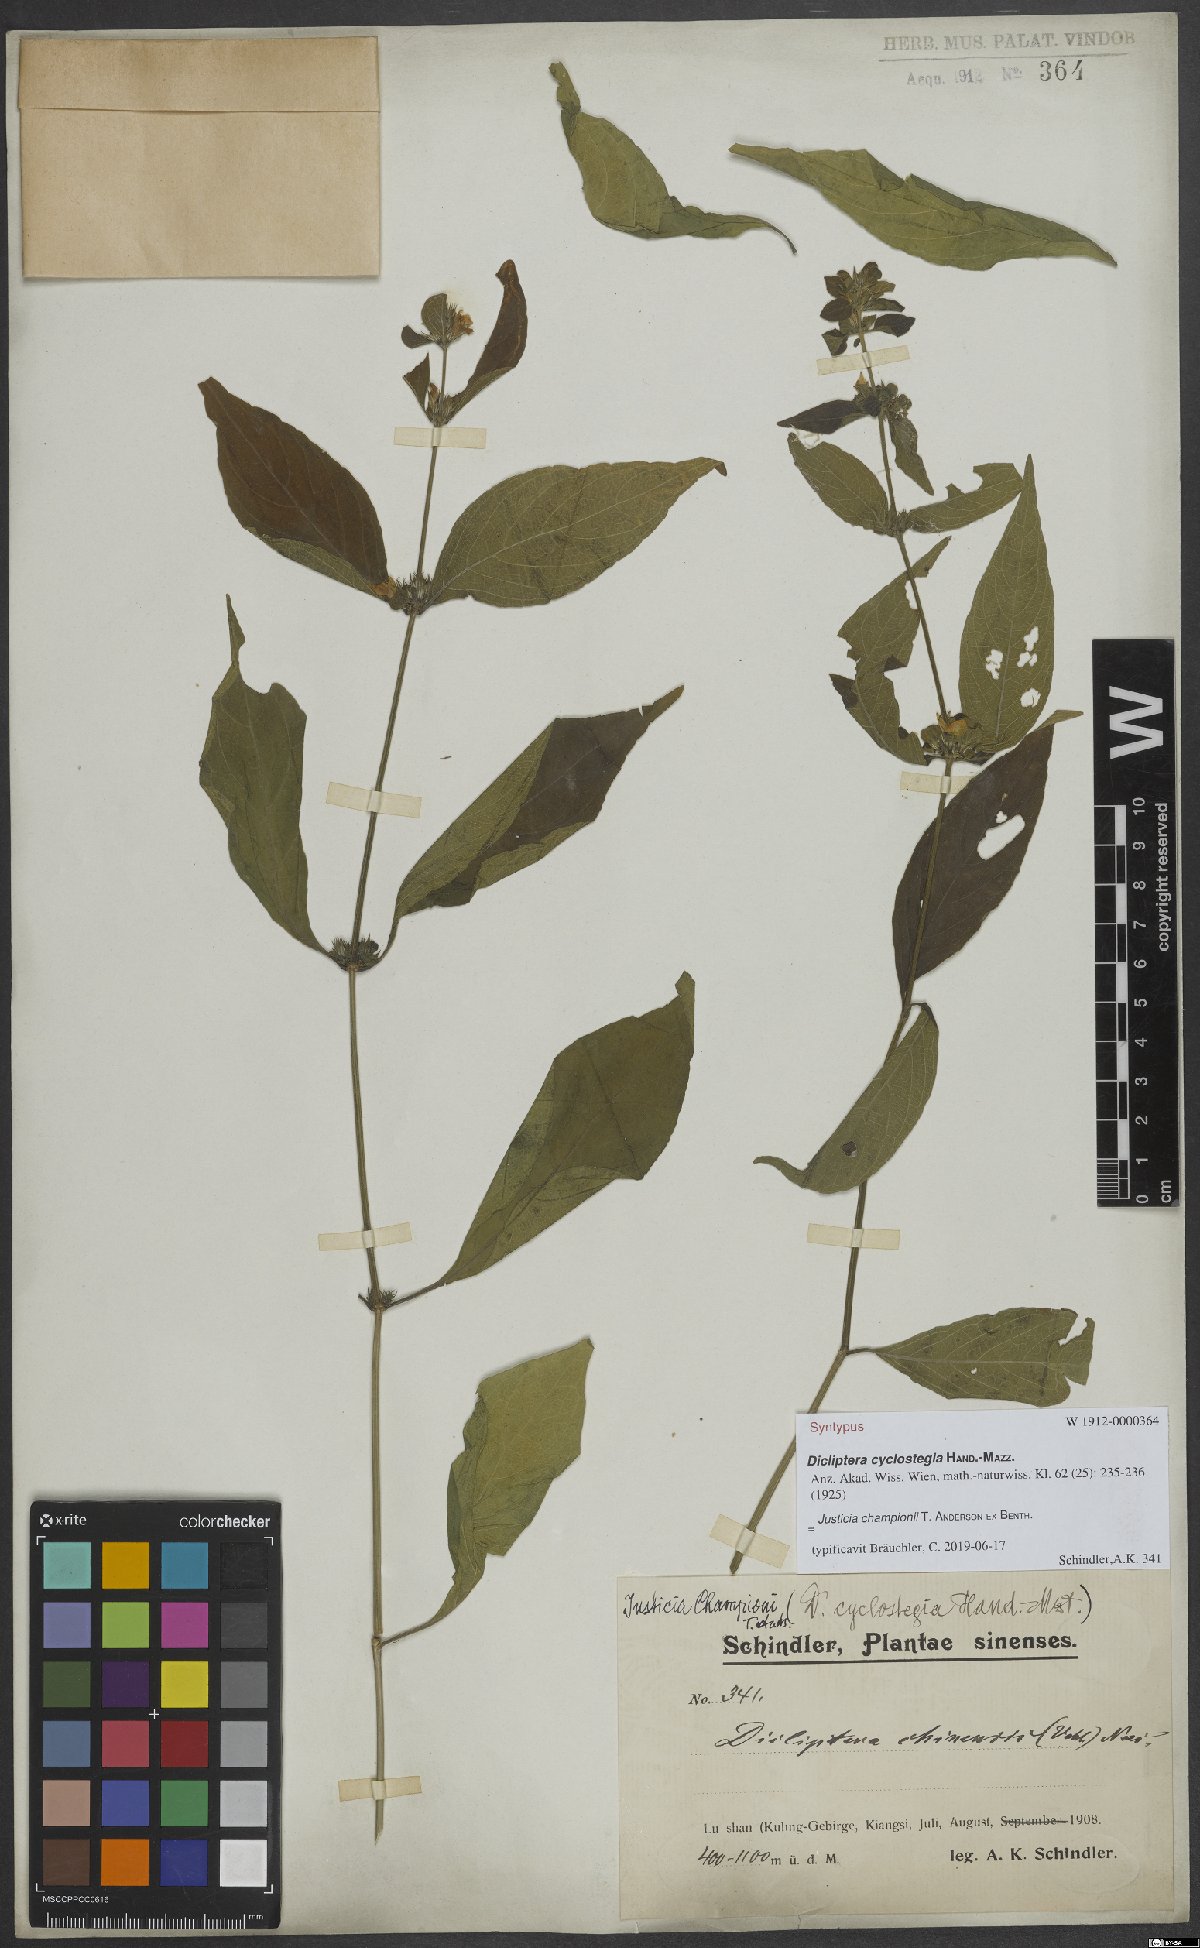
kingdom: Plantae
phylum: Tracheophyta
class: Magnoliopsida
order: Lamiales
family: Acanthaceae
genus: Justicia
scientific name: Justicia championii
